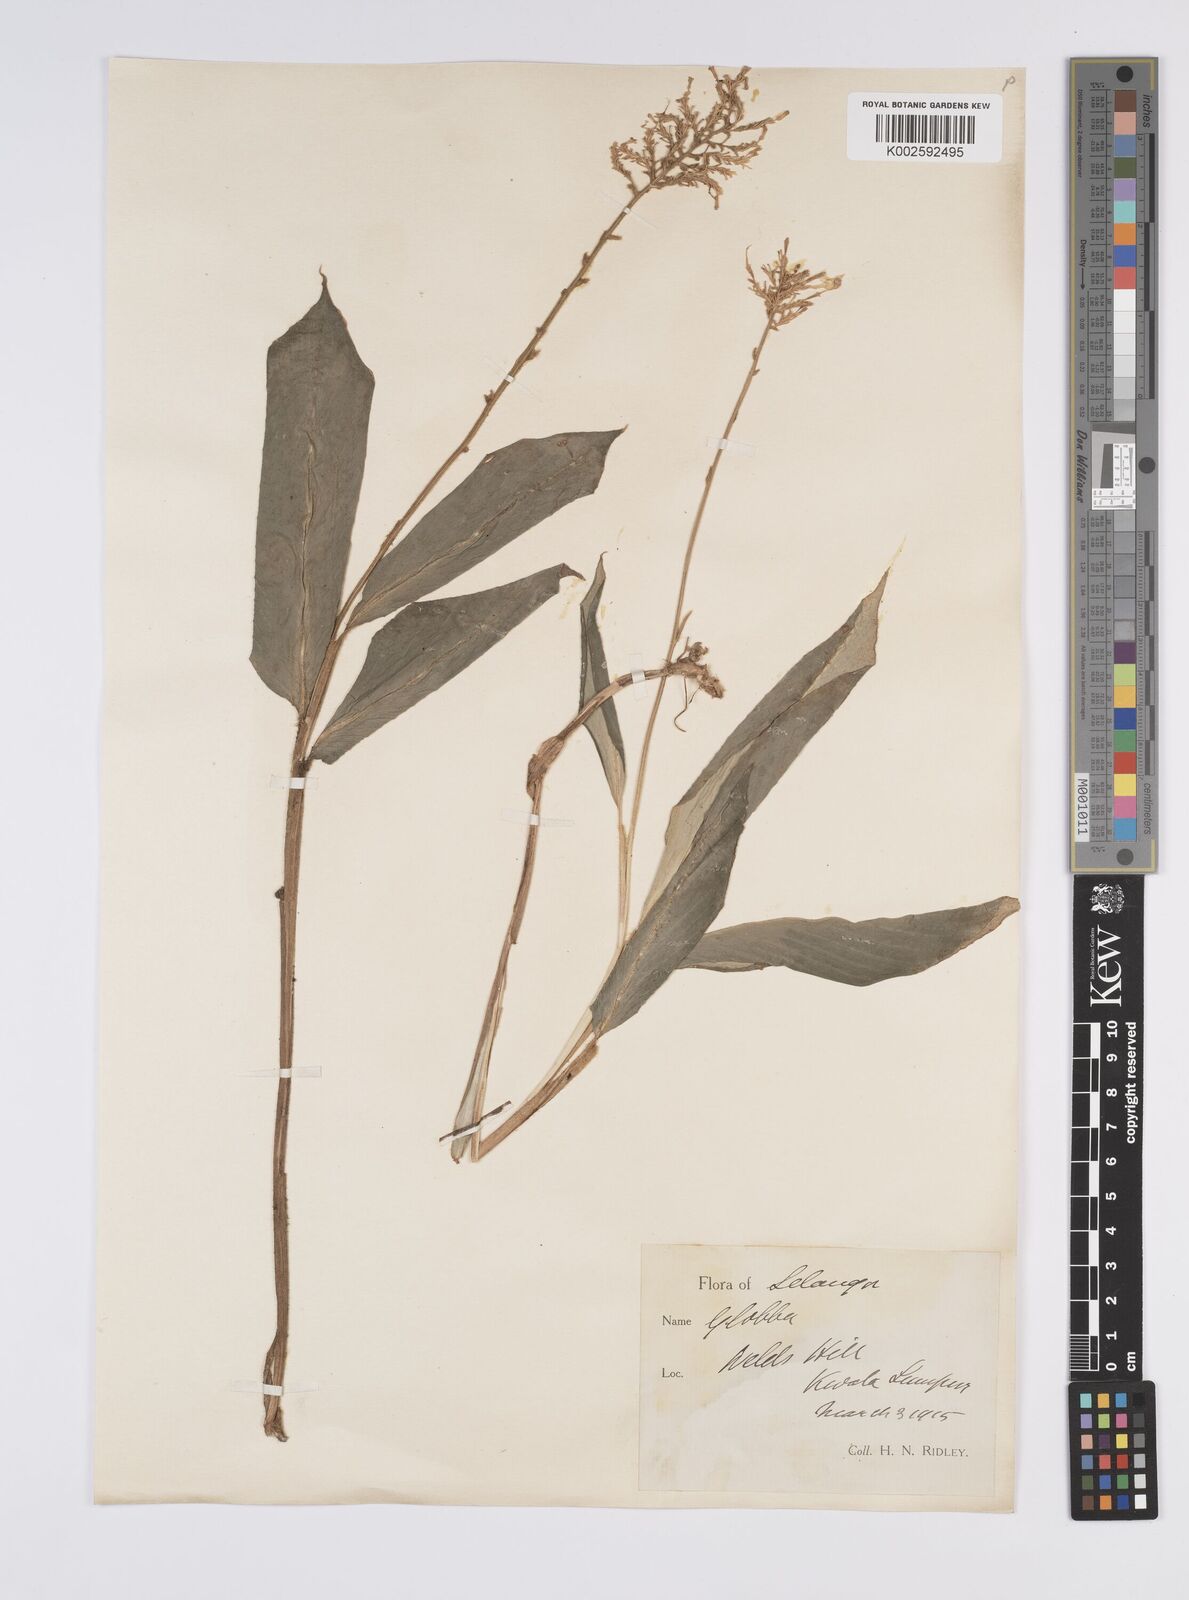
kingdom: Plantae
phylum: Tracheophyta
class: Liliopsida
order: Zingiberales
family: Zingiberaceae
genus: Globba
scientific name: Globba aurantiaca
